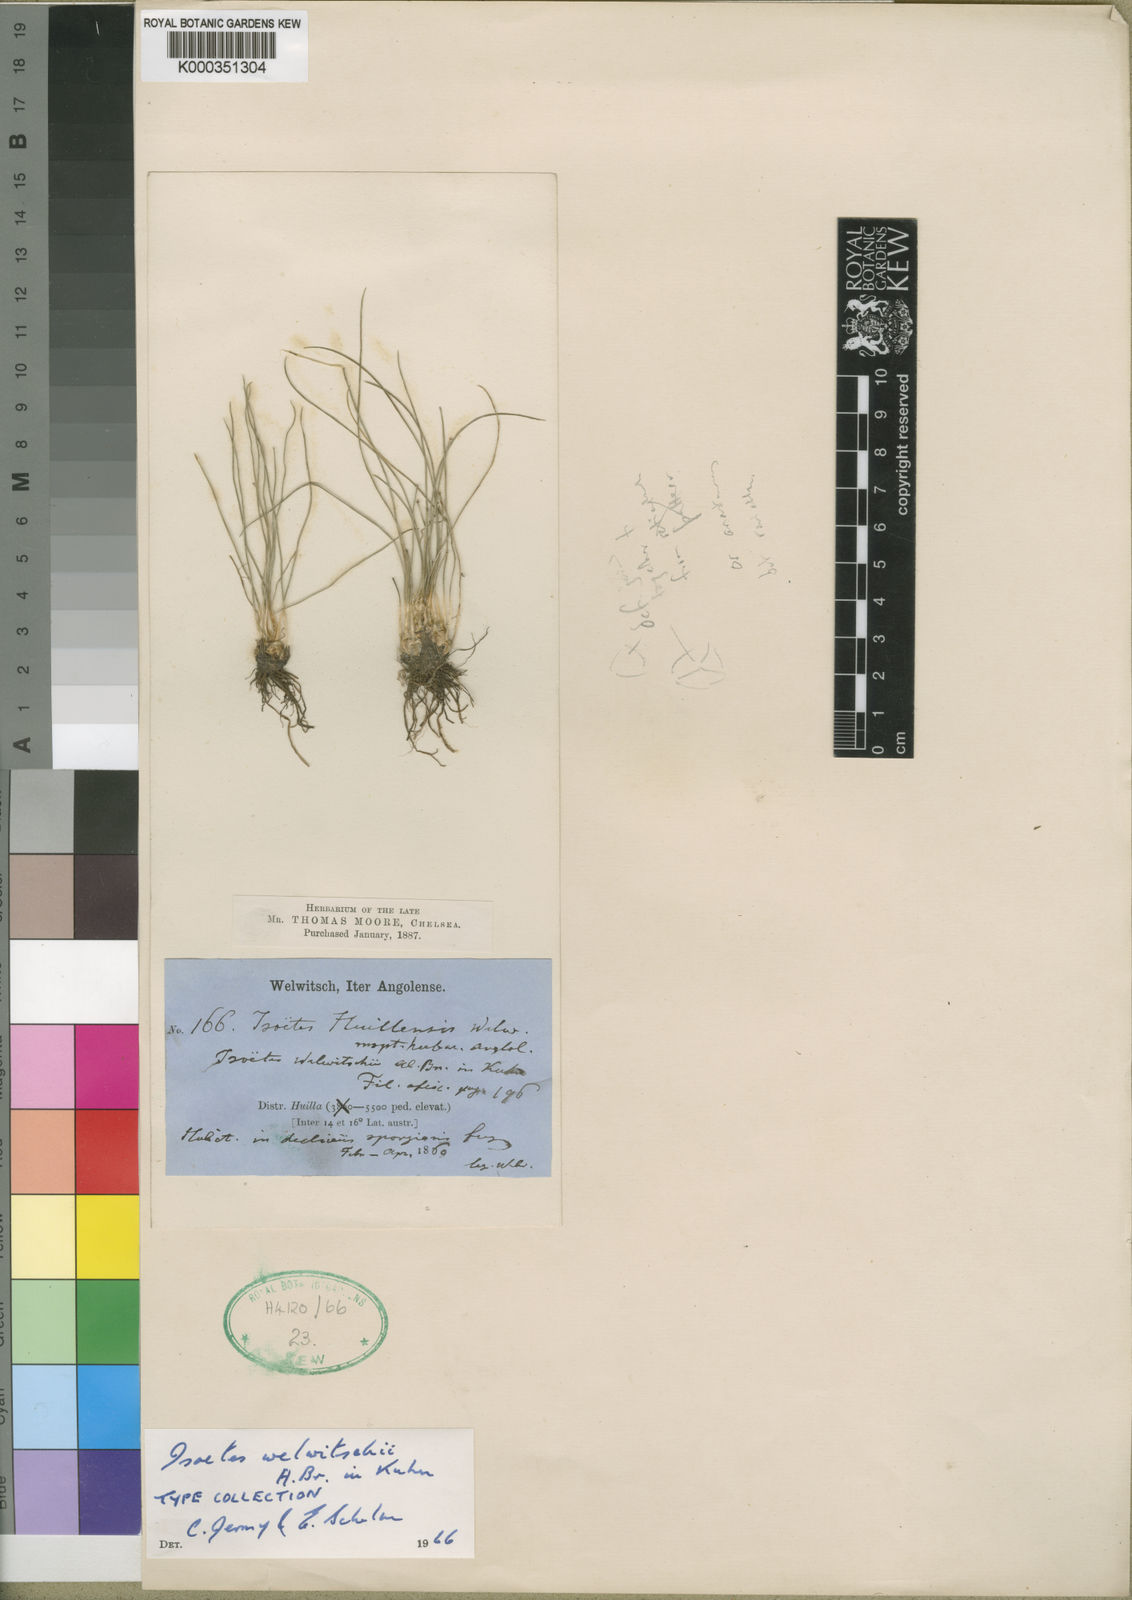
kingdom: Plantae
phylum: Tracheophyta
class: Lycopodiopsida
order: Isoetales
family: Isoetaceae
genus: Isoetes
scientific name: Isoetes welwitschii
